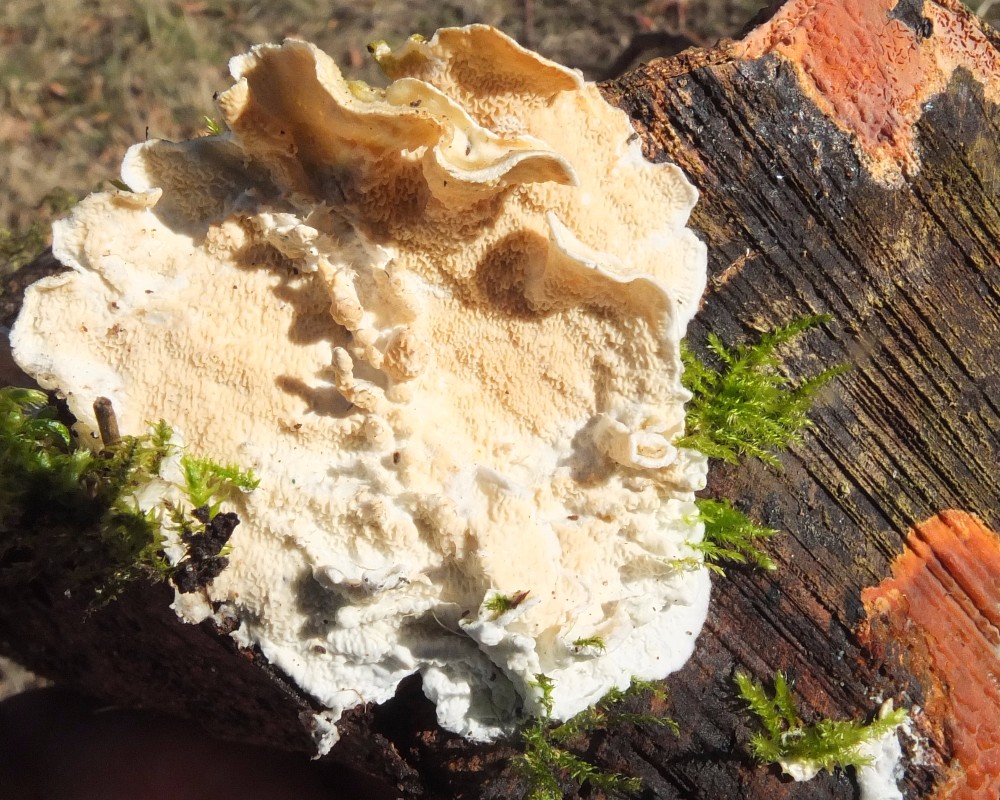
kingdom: Fungi
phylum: Basidiomycota
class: Agaricomycetes
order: Polyporales
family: Irpicaceae
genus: Byssomerulius
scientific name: Byssomerulius corium
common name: læder-åresvamp
